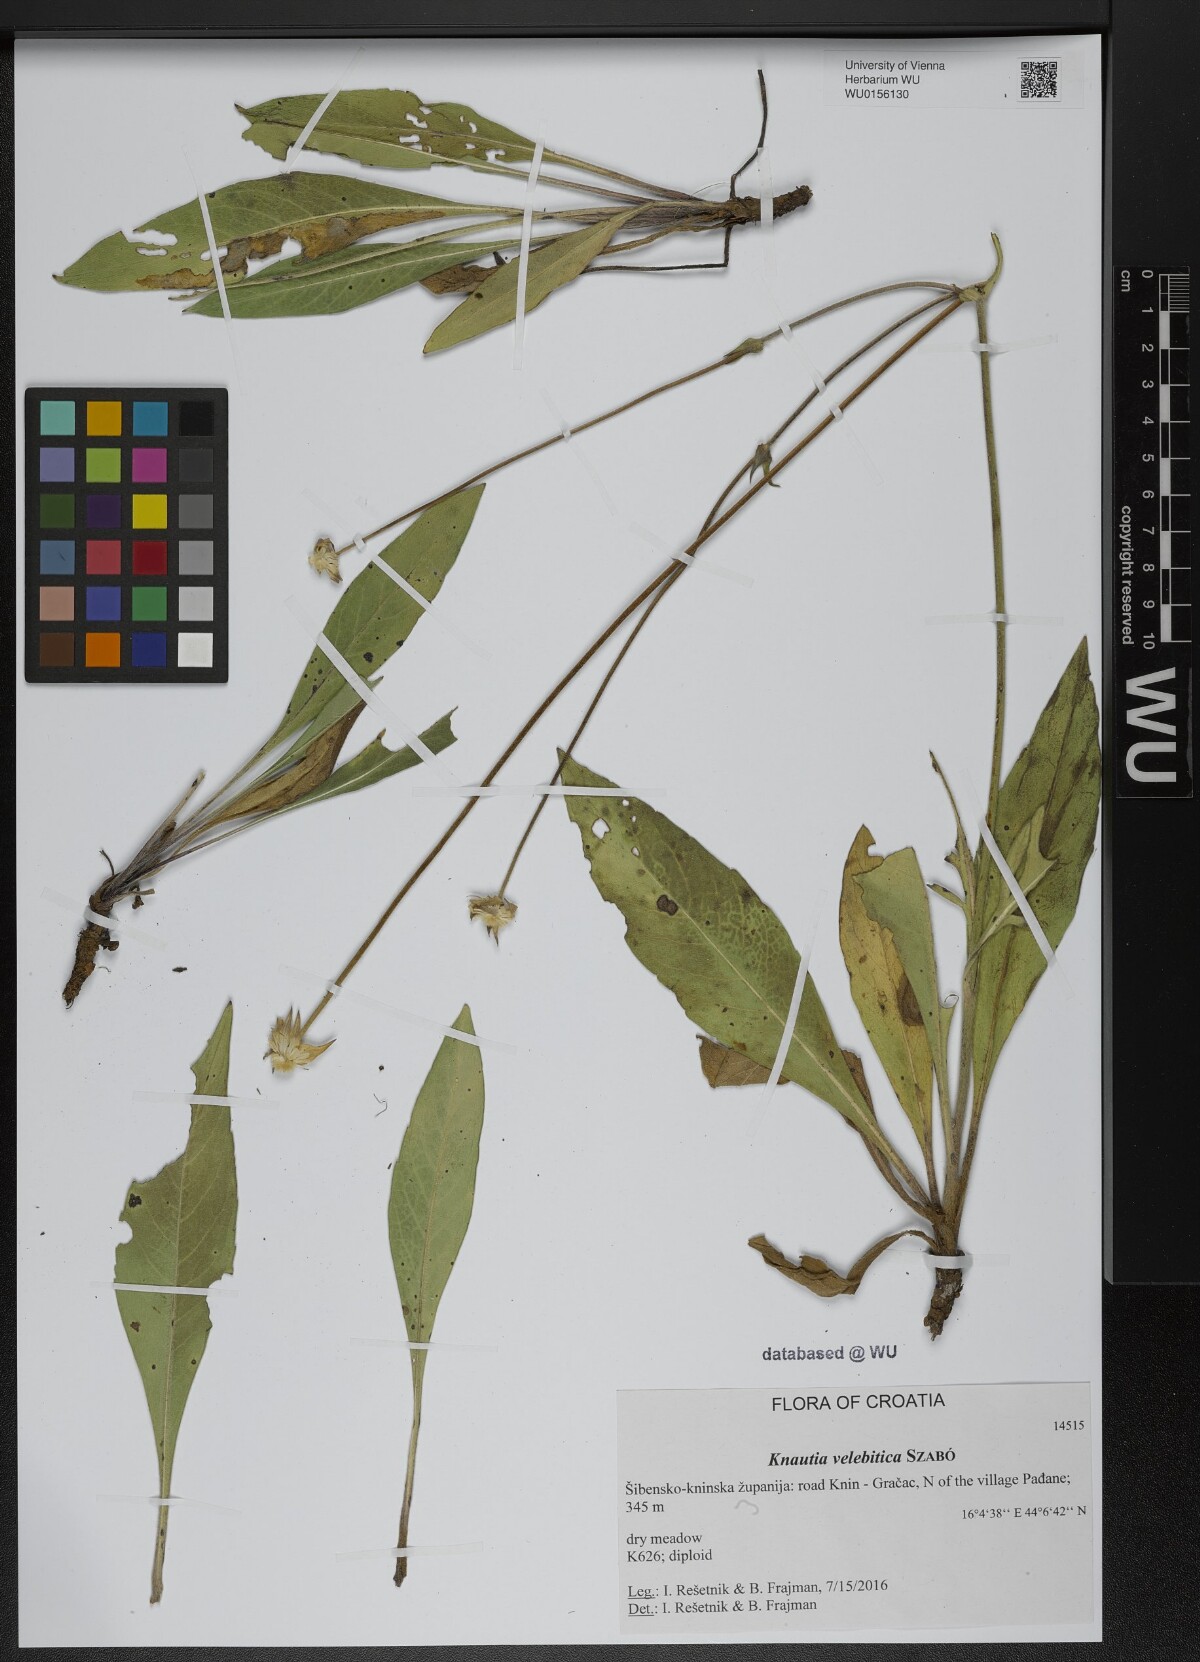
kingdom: Plantae
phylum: Tracheophyta
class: Magnoliopsida
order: Dipsacales
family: Caprifoliaceae
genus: Knautia
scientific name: Knautia velebitica
